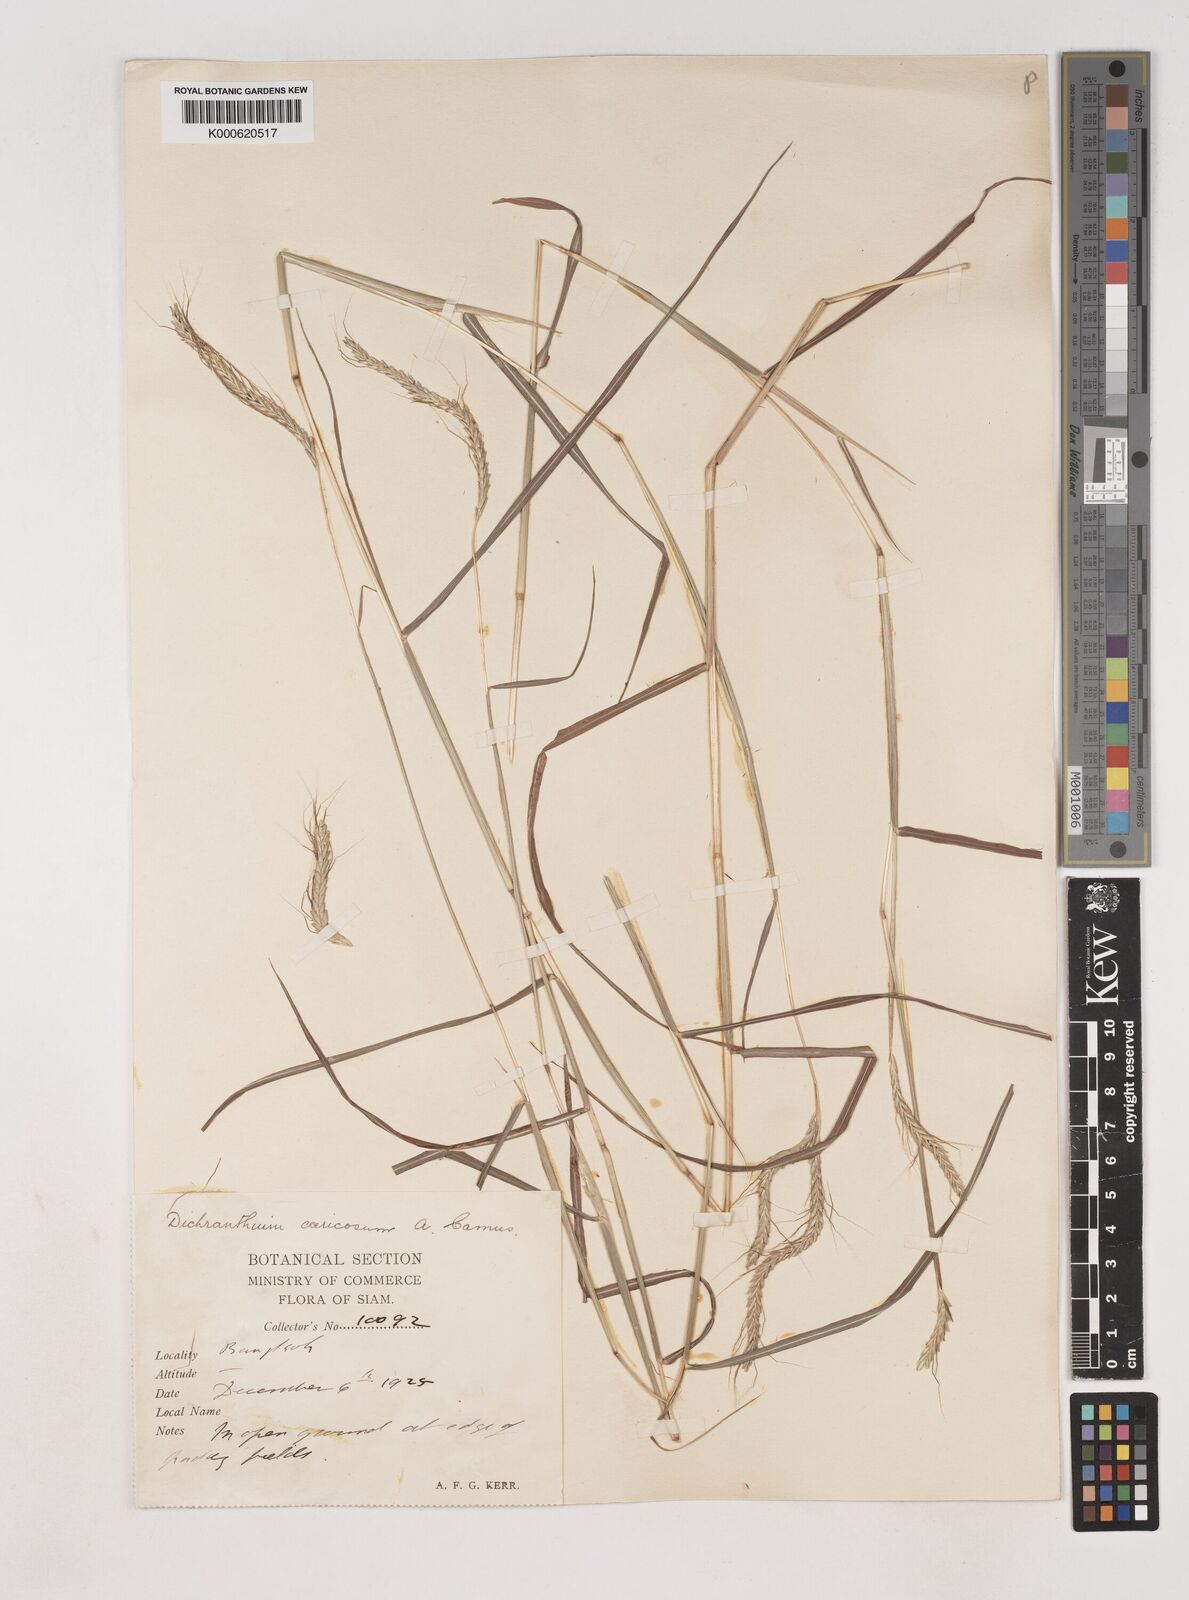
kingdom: Plantae
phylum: Tracheophyta
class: Liliopsida
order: Poales
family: Poaceae
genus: Dichanthium
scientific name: Dichanthium caricosum
